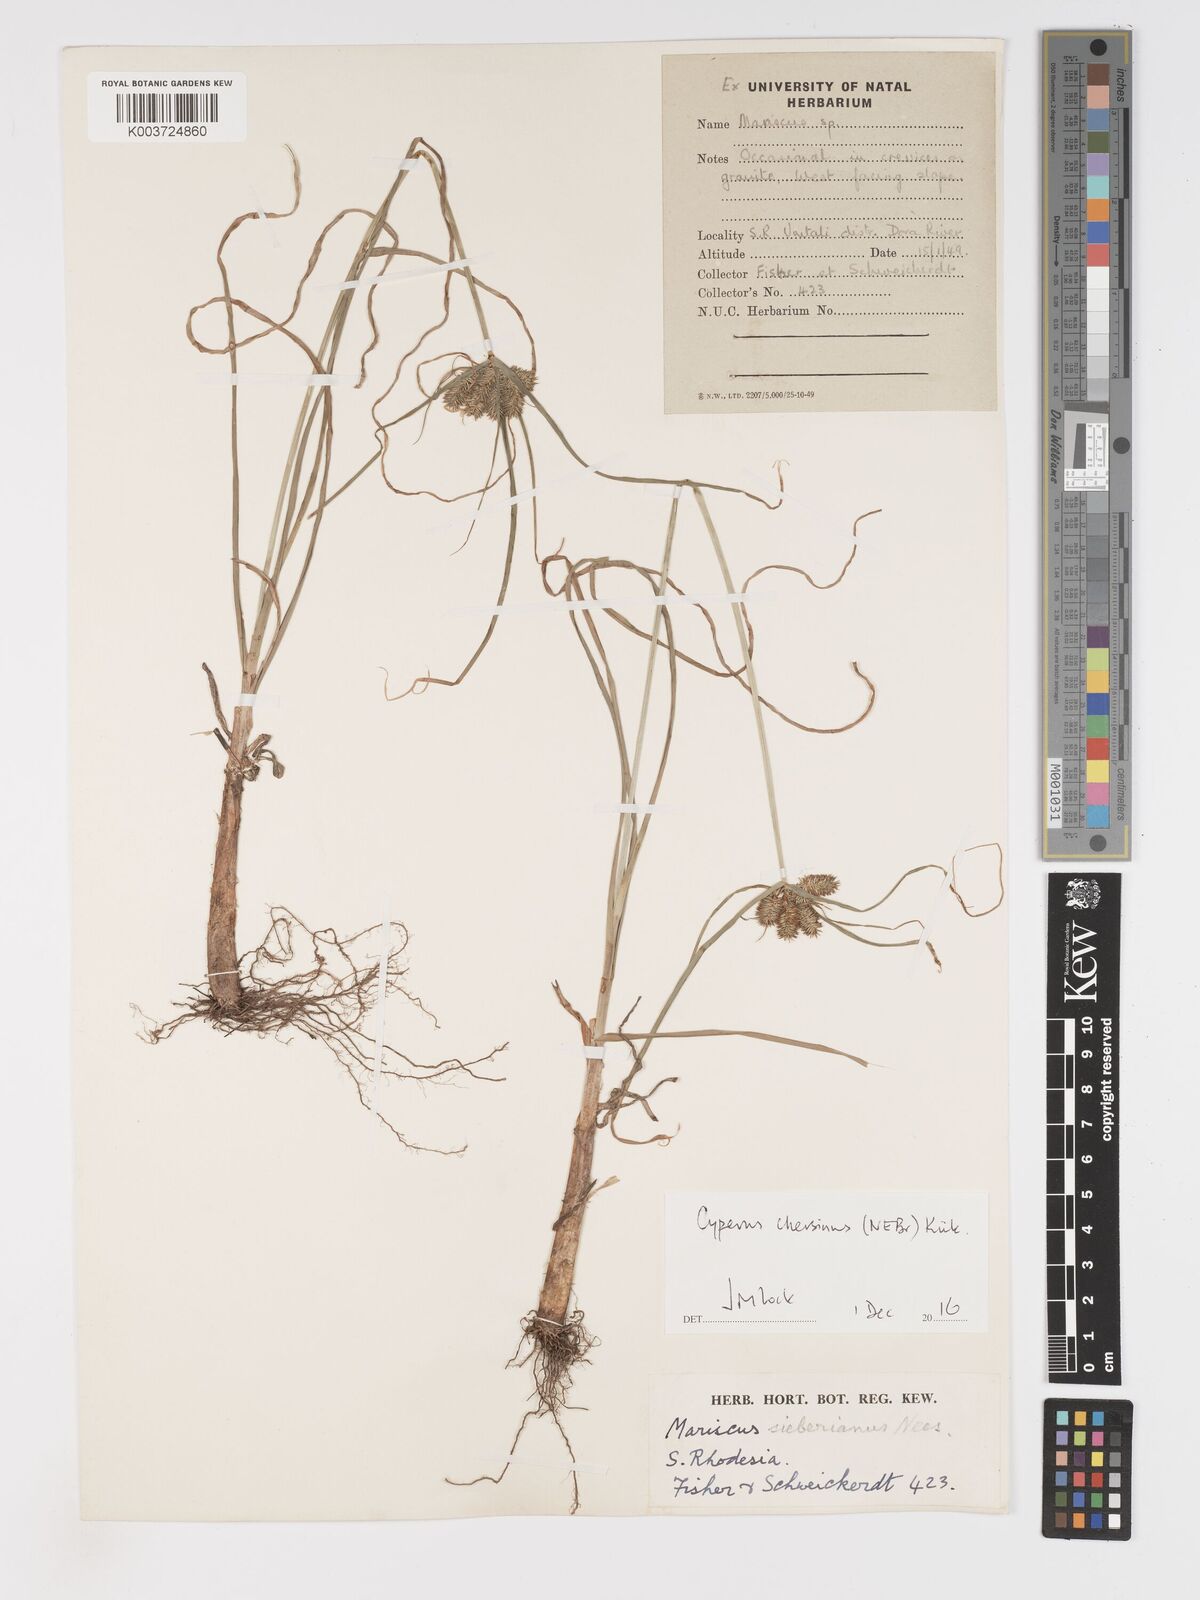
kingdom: Plantae
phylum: Tracheophyta
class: Liliopsida
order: Poales
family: Cyperaceae
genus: Cyperus
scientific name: Cyperus chersinus
